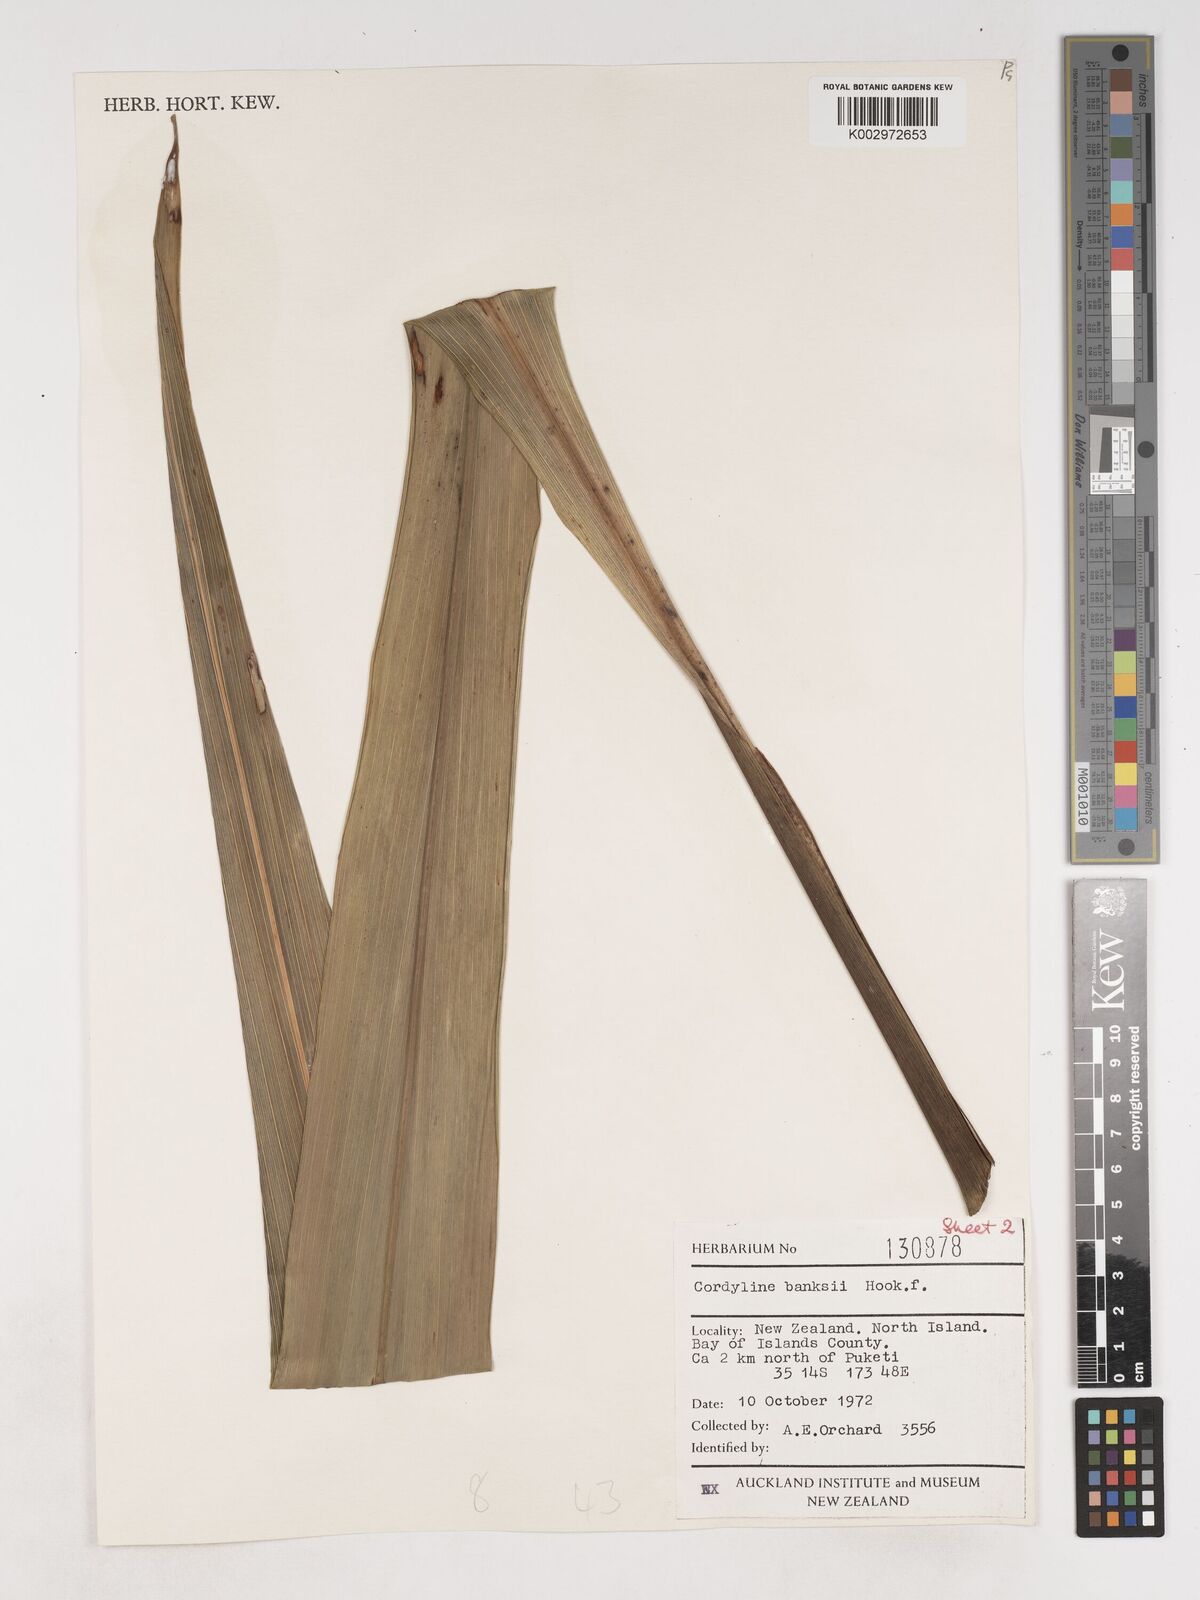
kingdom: Plantae
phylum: Tracheophyta
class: Liliopsida
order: Asparagales
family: Asparagaceae
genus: Cordyline
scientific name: Cordyline banksii
